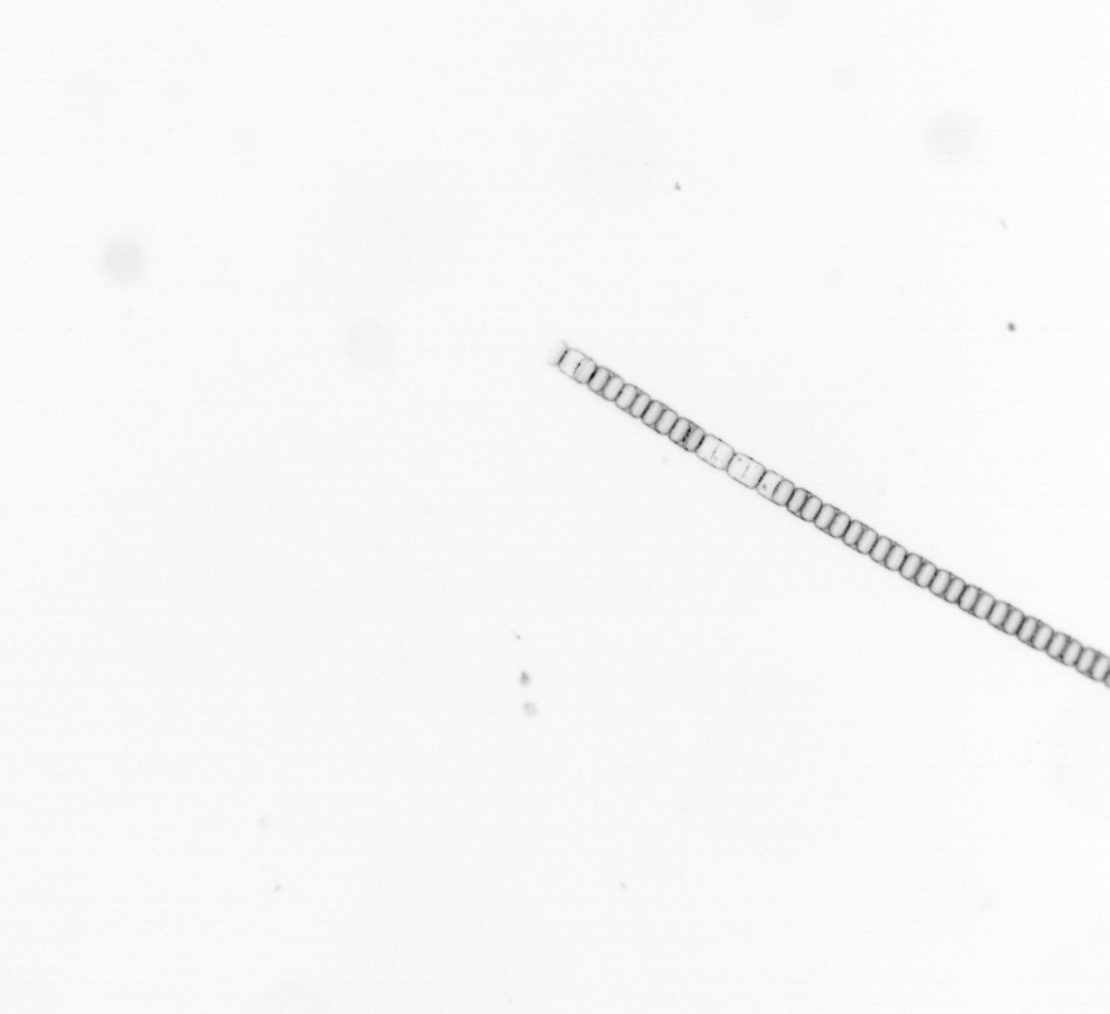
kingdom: Chromista
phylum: Ochrophyta
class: Bacillariophyceae
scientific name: Bacillariophyceae
